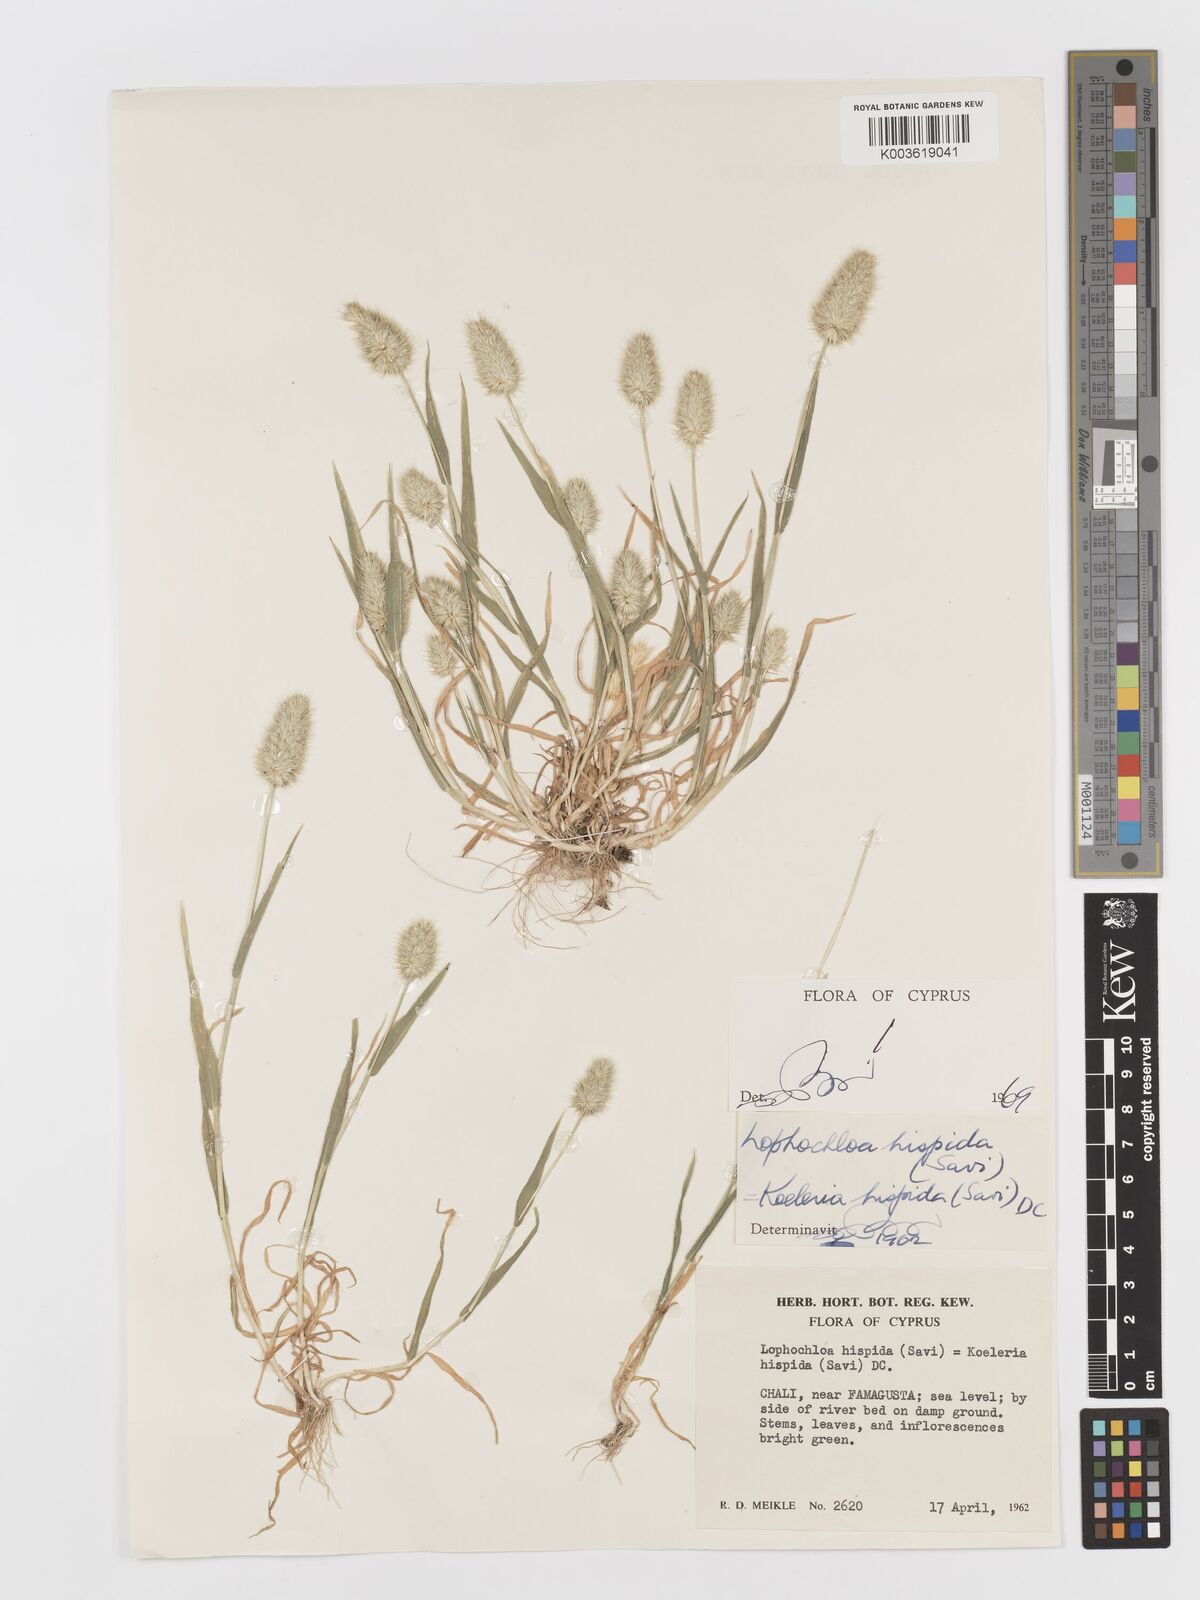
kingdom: Plantae
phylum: Tracheophyta
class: Liliopsida
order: Poales
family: Poaceae
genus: Rostraria
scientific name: Rostraria hispida
